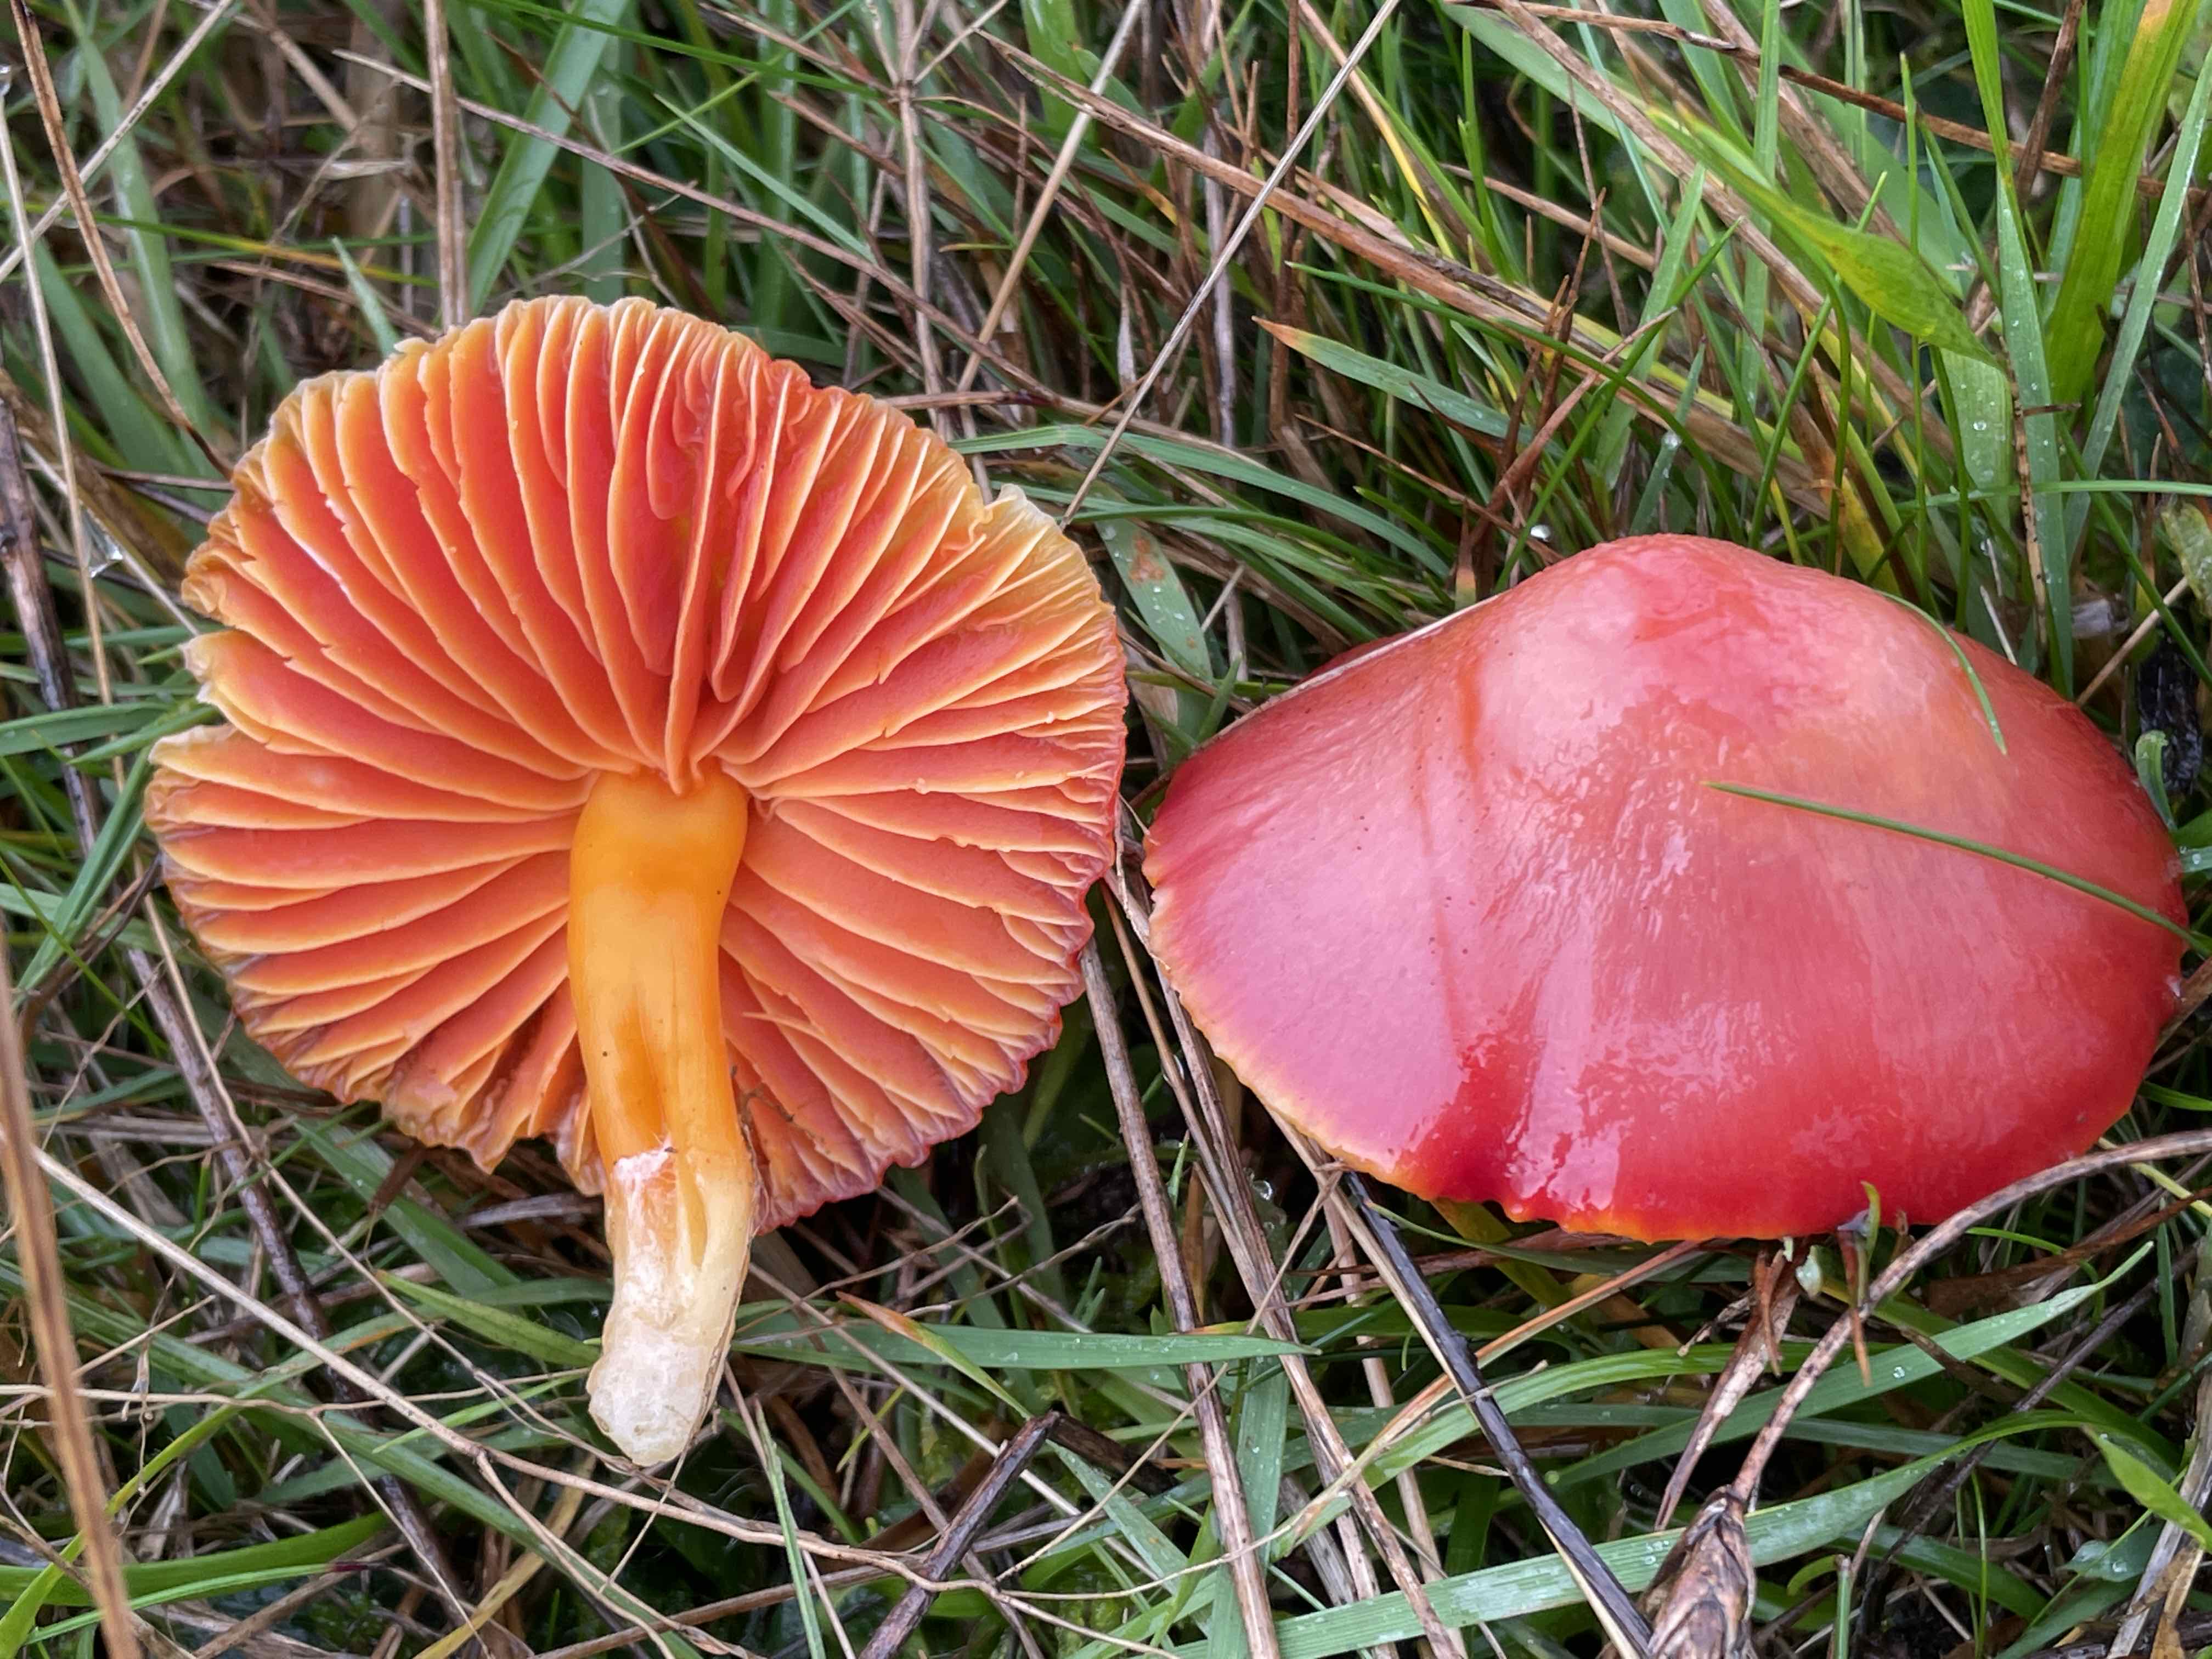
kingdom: Fungi
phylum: Basidiomycota
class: Agaricomycetes
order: Agaricales
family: Hygrophoraceae
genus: Hygrocybe
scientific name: Hygrocybe
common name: vokshat
